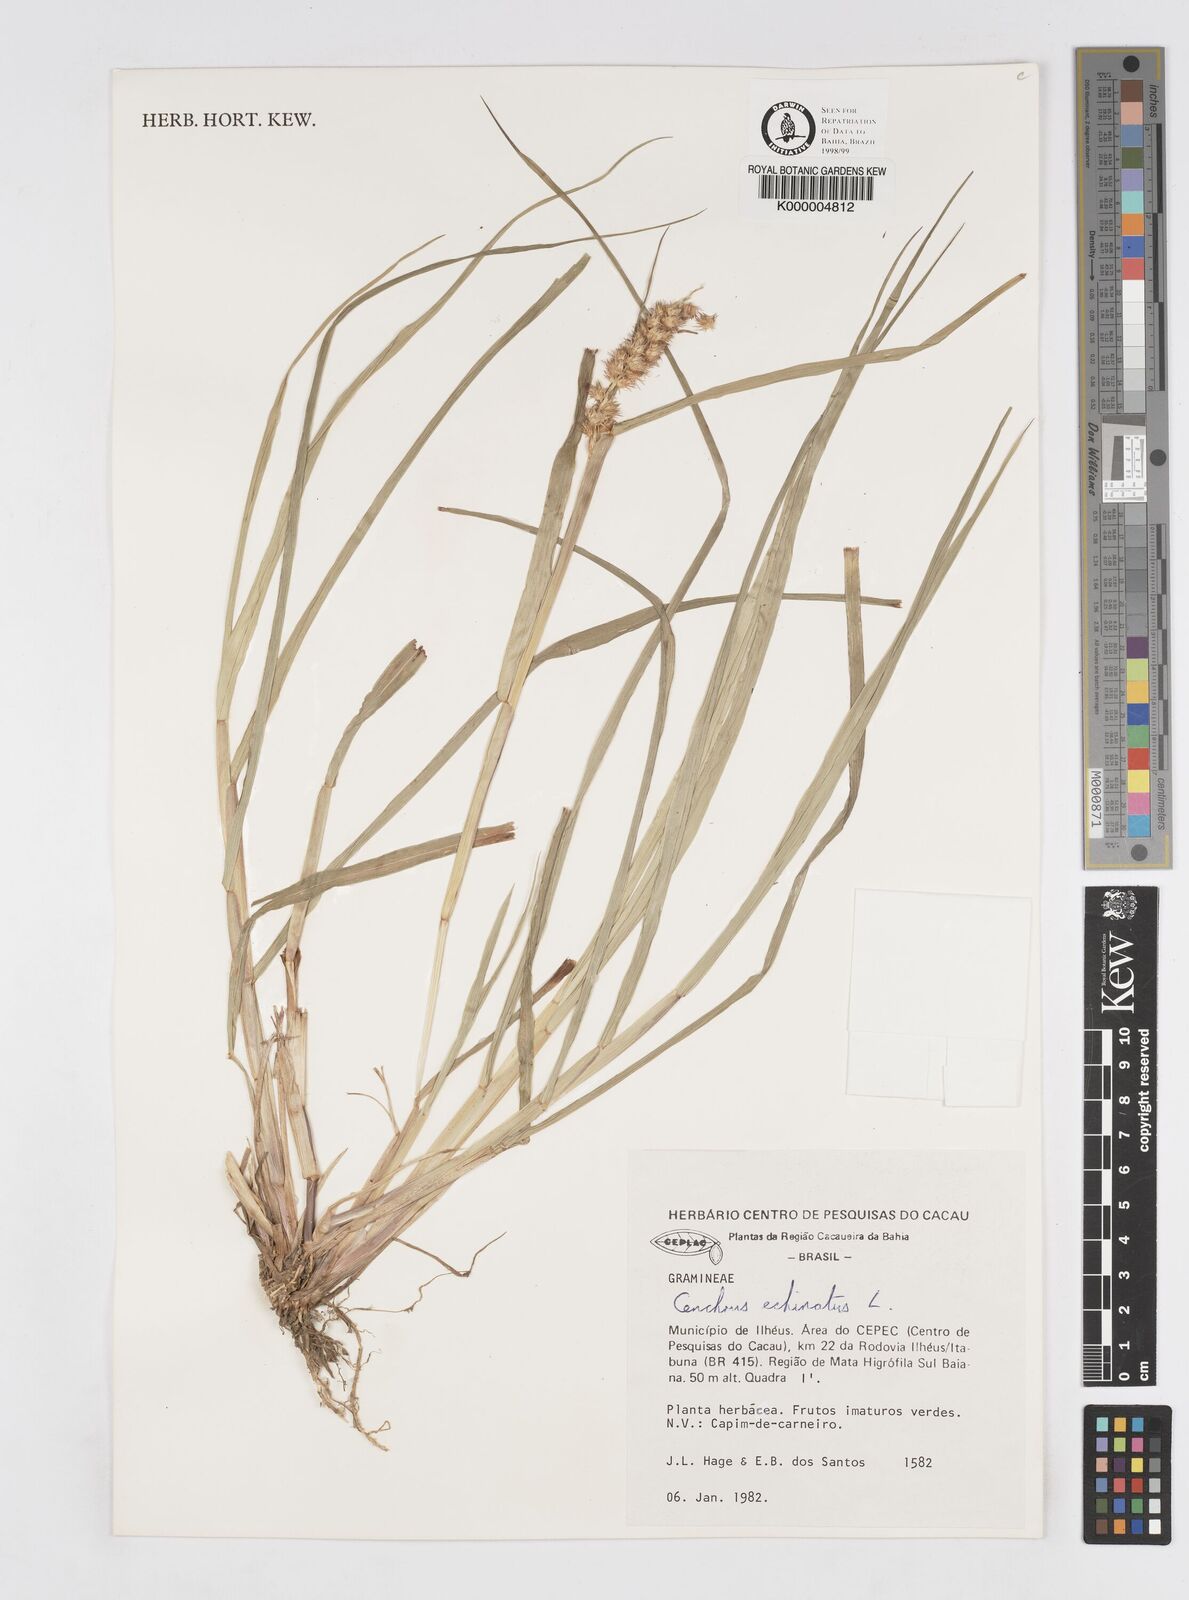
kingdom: Plantae
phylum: Tracheophyta
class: Liliopsida
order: Poales
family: Poaceae
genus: Cenchrus
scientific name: Cenchrus echinatus
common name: Southern sandbur
